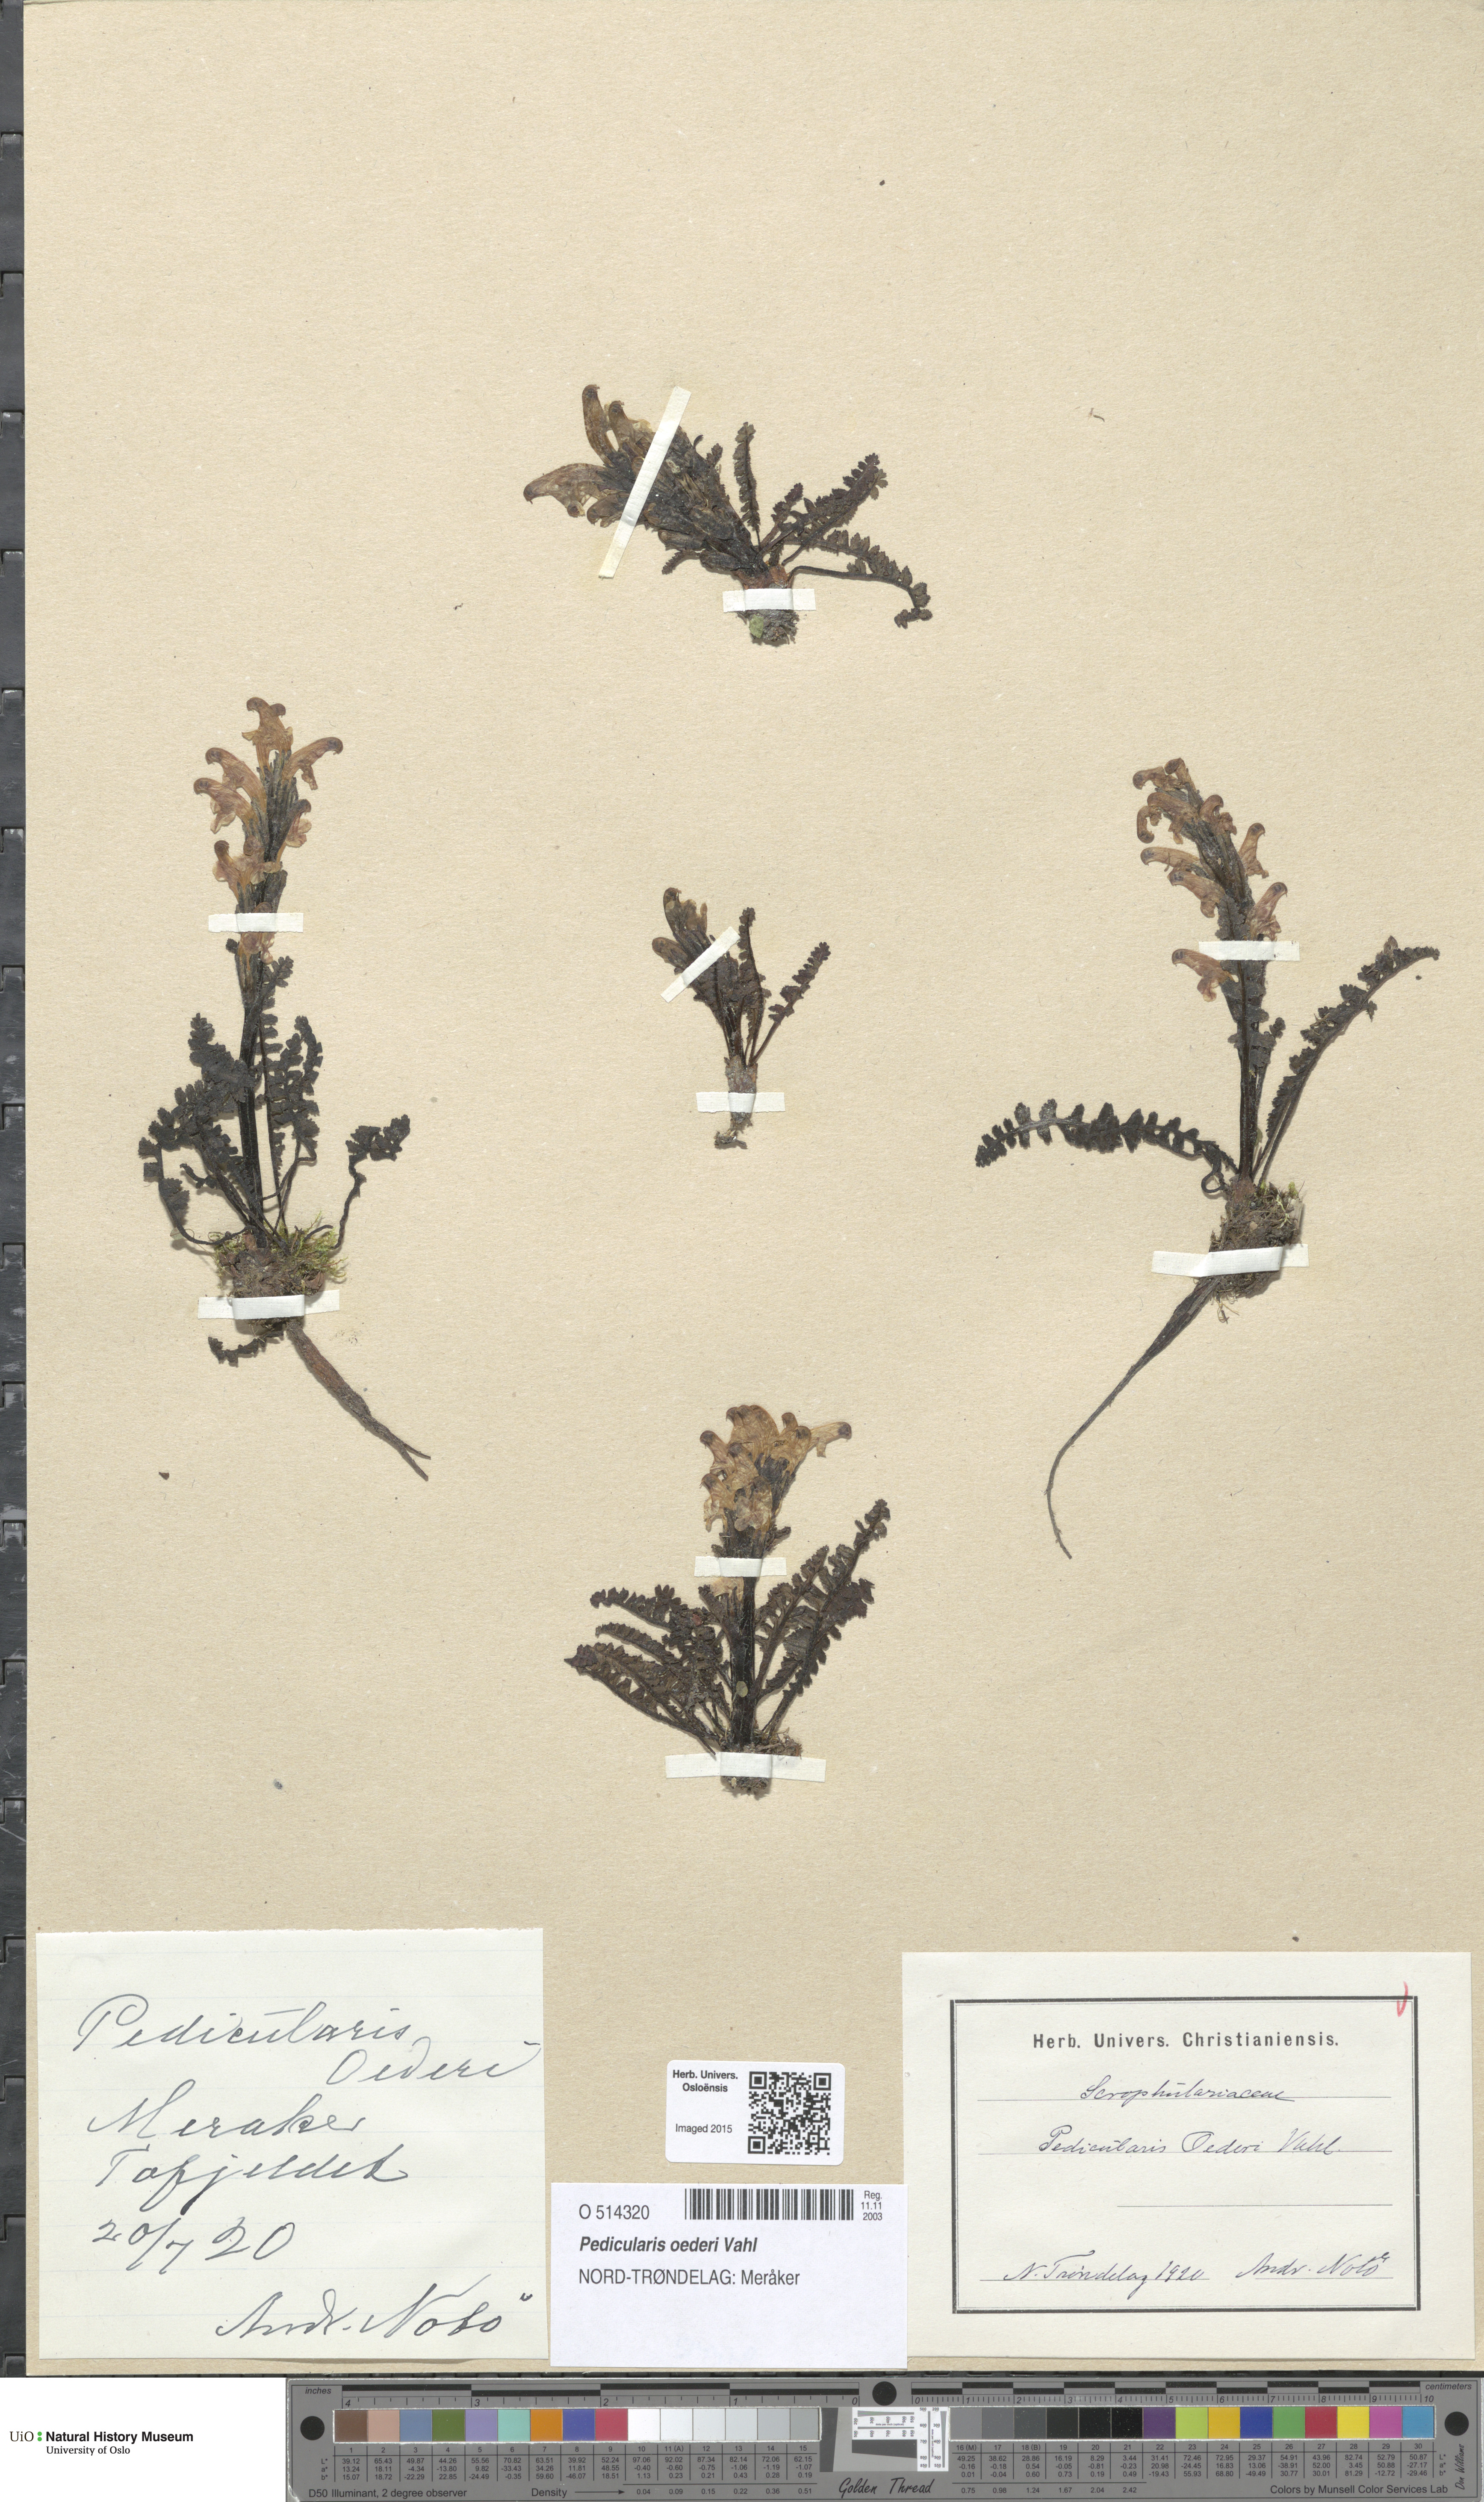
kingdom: Plantae
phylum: Tracheophyta
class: Magnoliopsida
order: Lamiales
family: Orobanchaceae
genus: Pedicularis
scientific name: Pedicularis oederi
